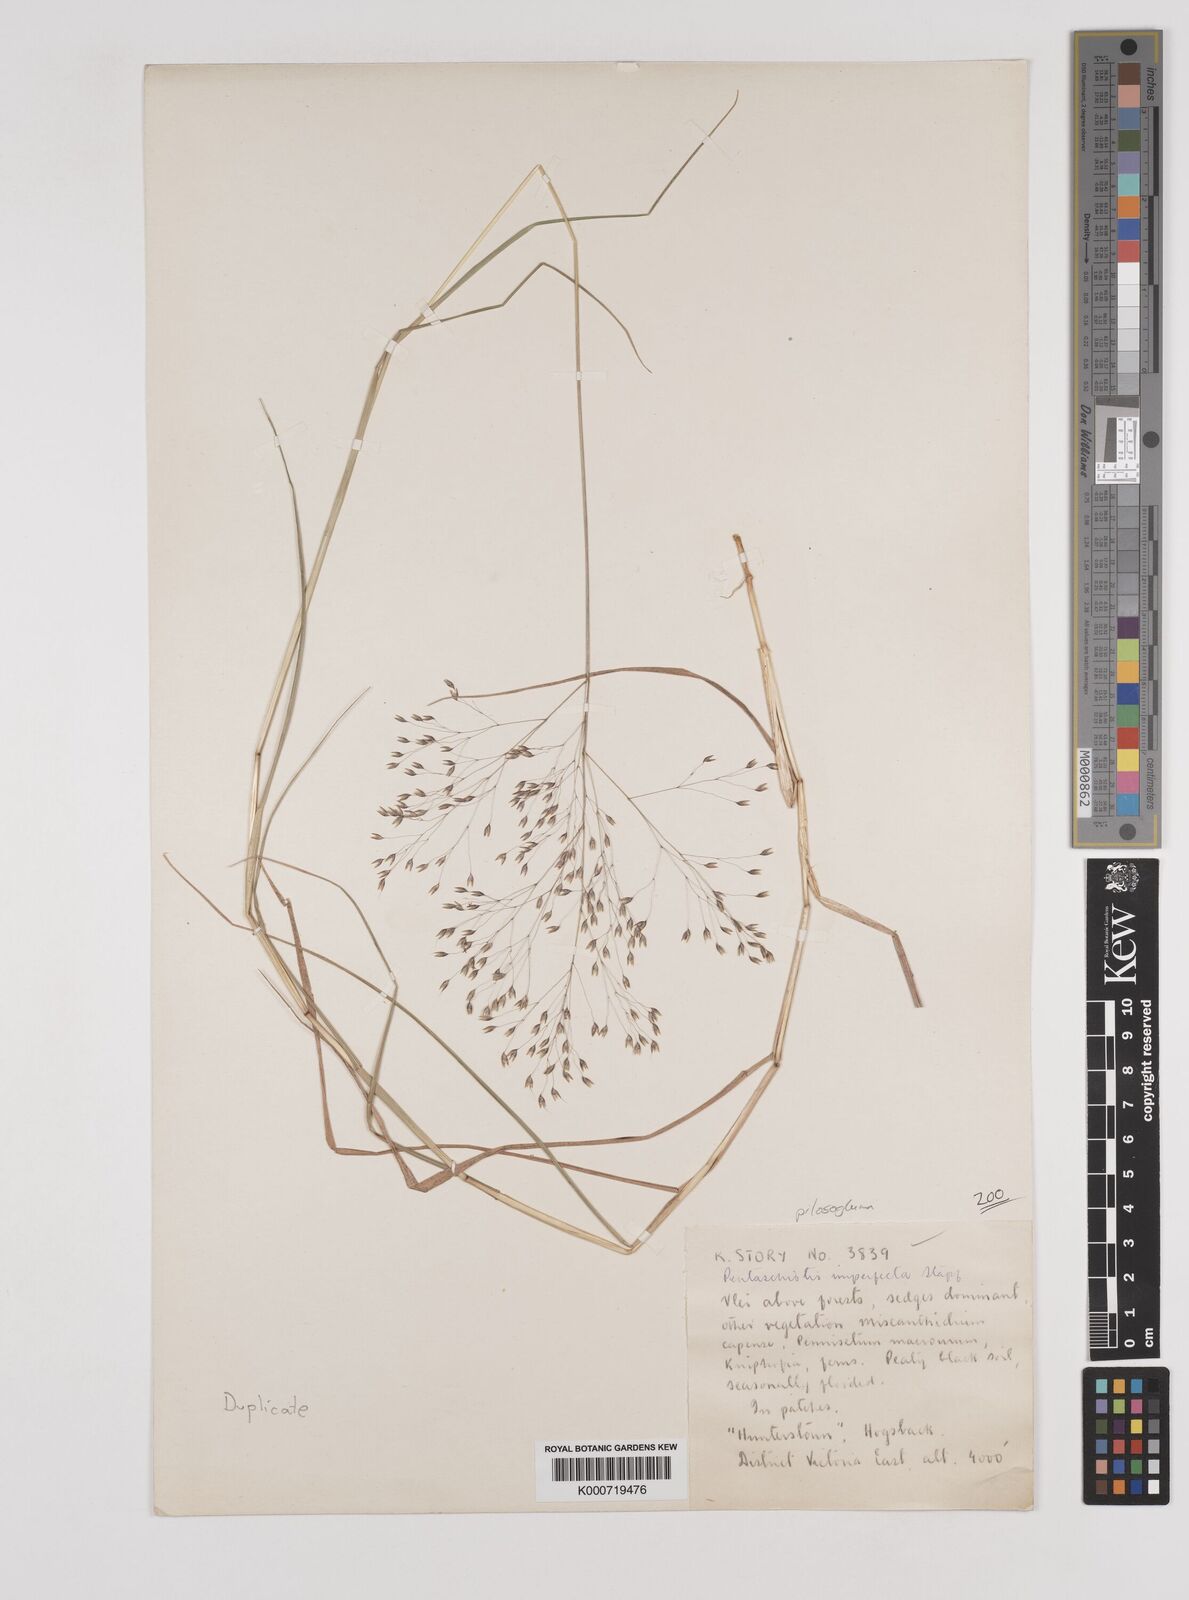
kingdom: Plantae
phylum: Tracheophyta
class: Liliopsida
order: Poales
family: Poaceae
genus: Pentameris
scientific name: Pentameris aurea
